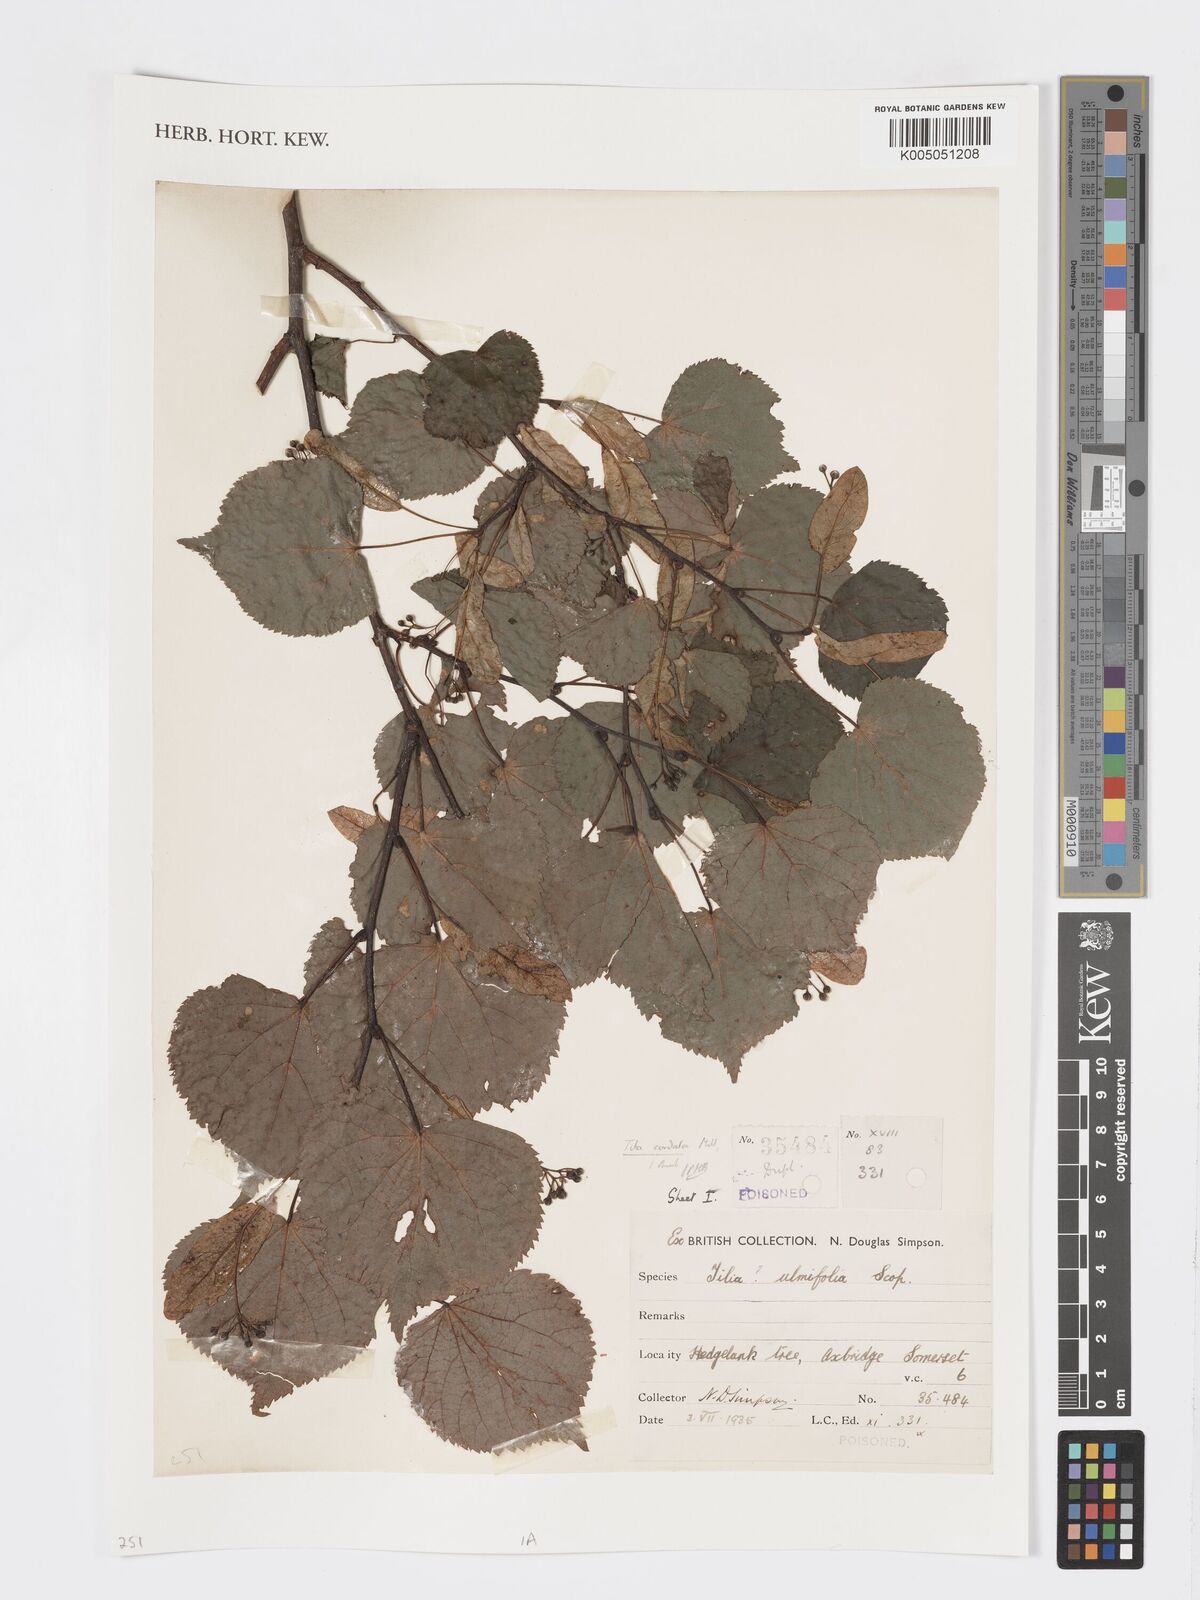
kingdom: Plantae
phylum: Tracheophyta
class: Magnoliopsida
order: Malvales
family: Malvaceae
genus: Tilia
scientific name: Tilia cordata
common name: Small-leaved lime
